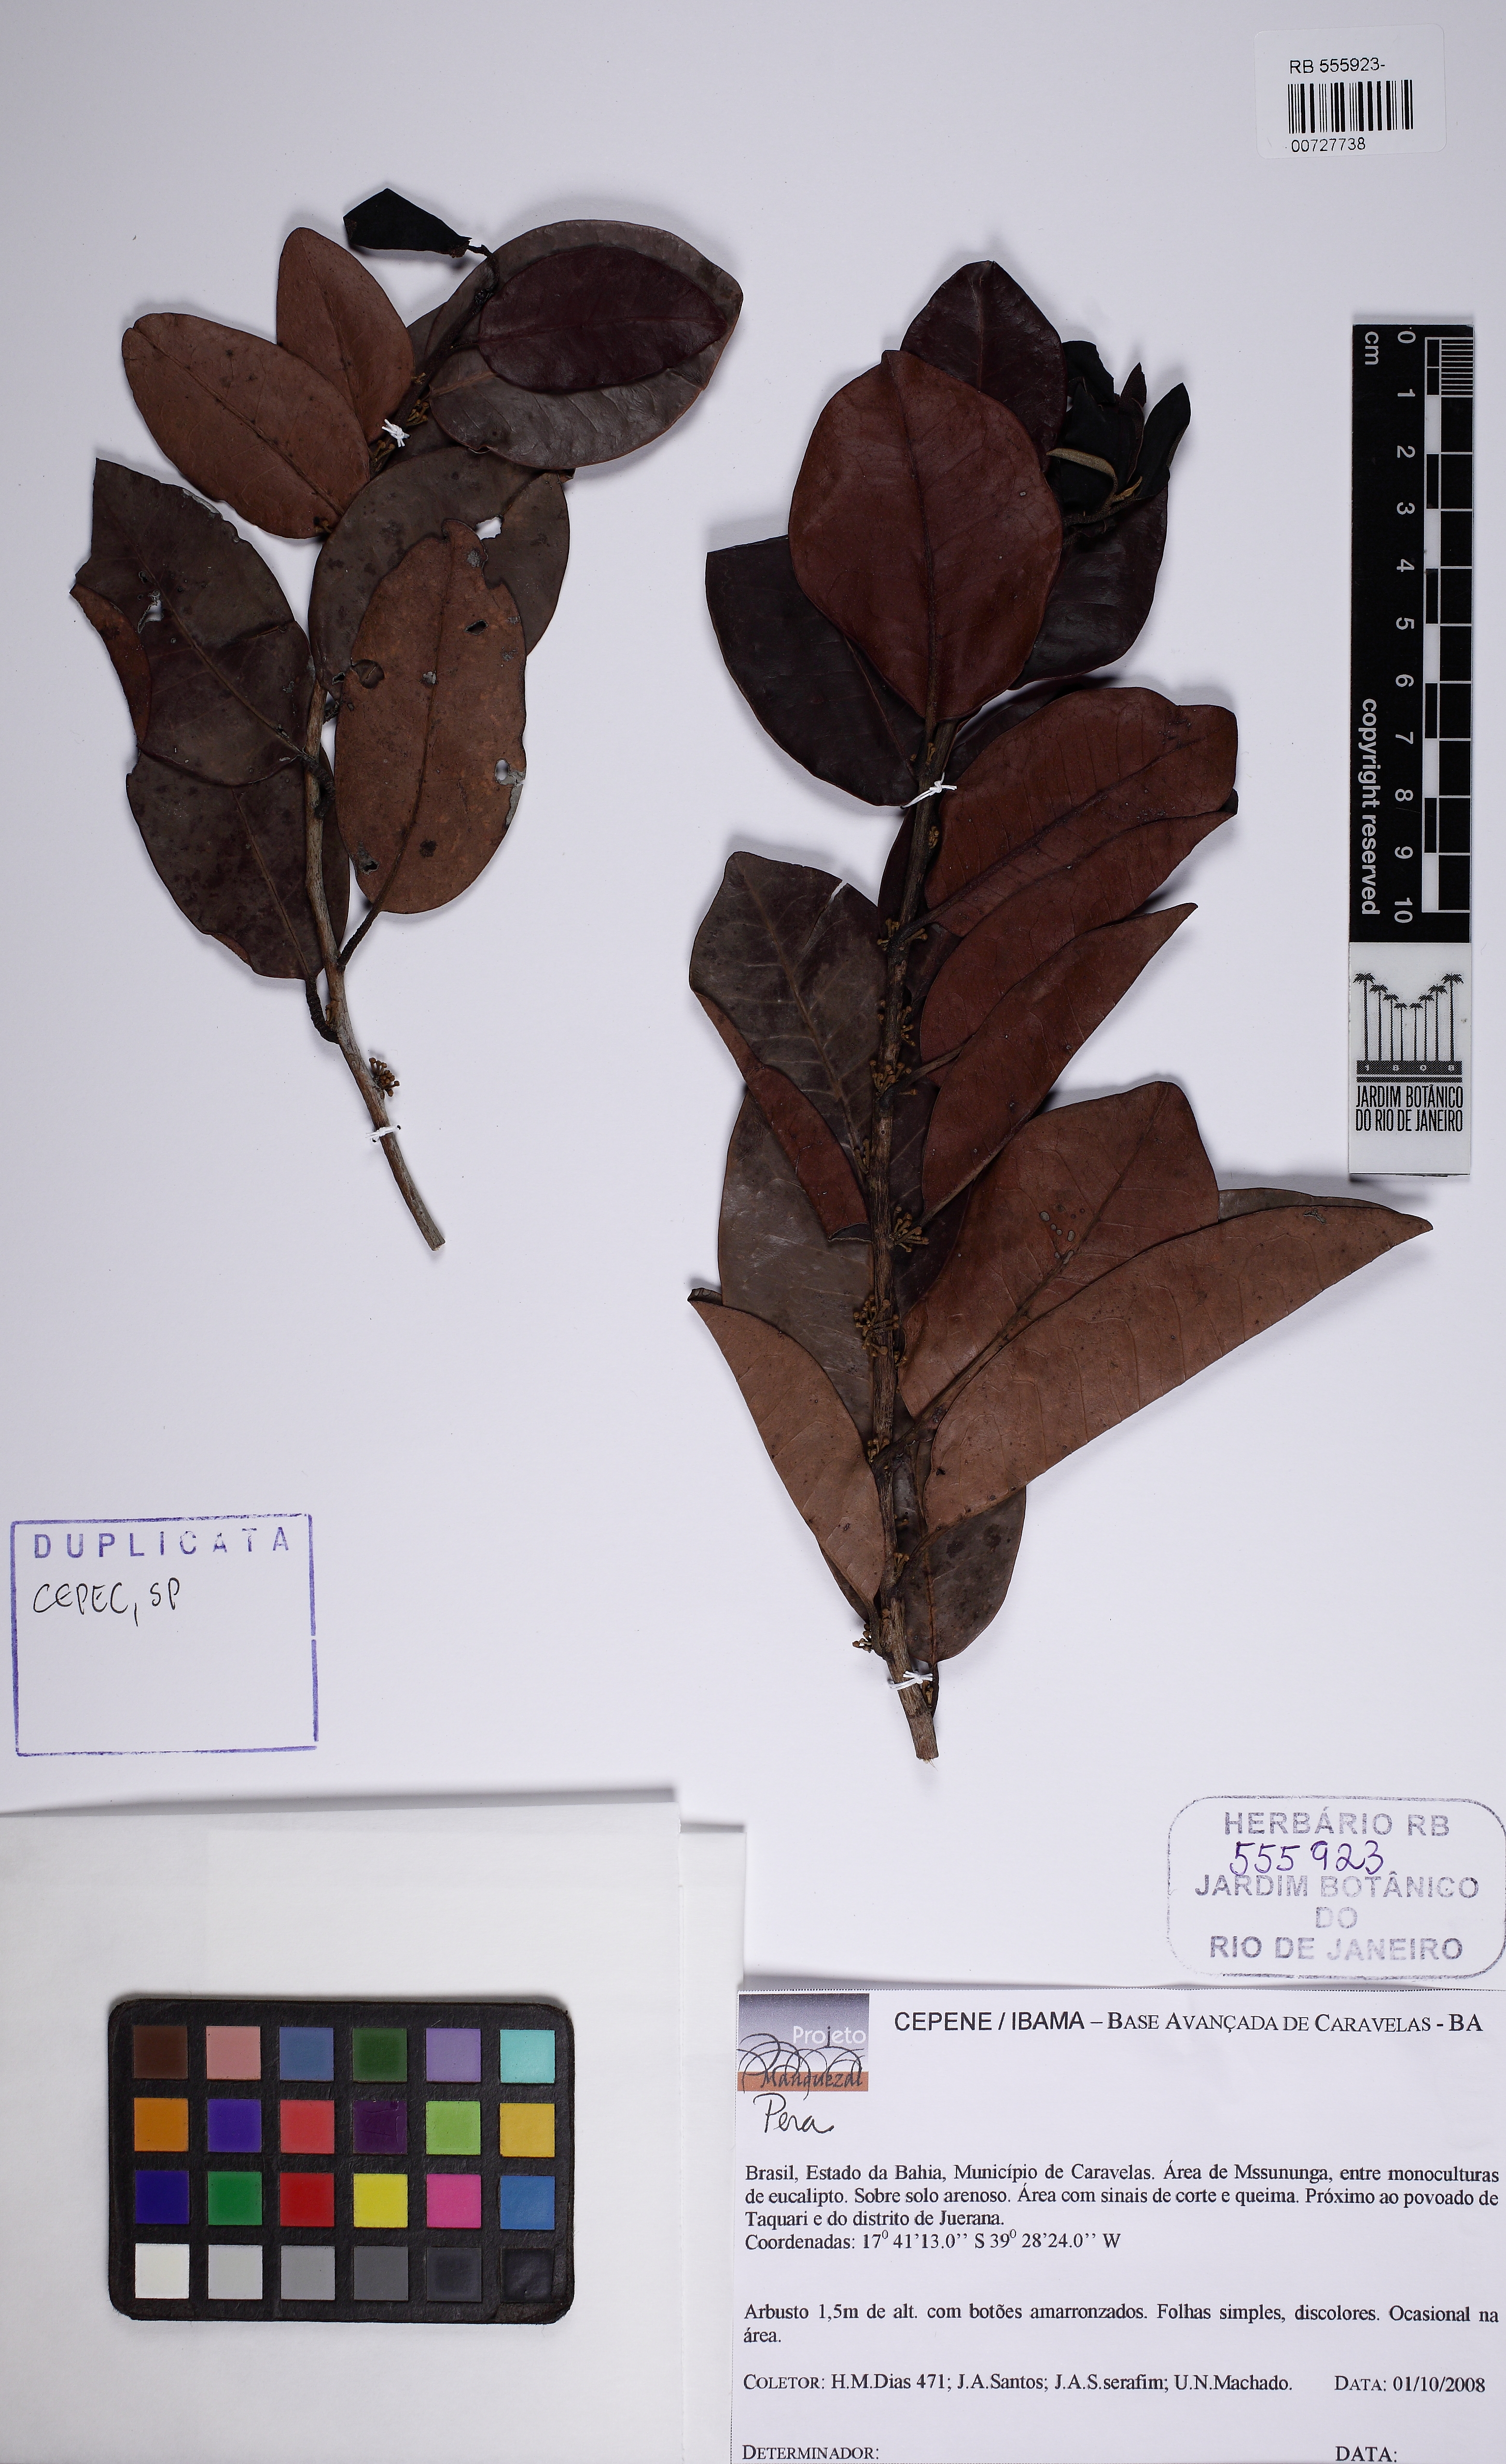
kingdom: Plantae
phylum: Tracheophyta
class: Magnoliopsida
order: Malpighiales
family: Peraceae
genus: Pera
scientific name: Pera glabrata
